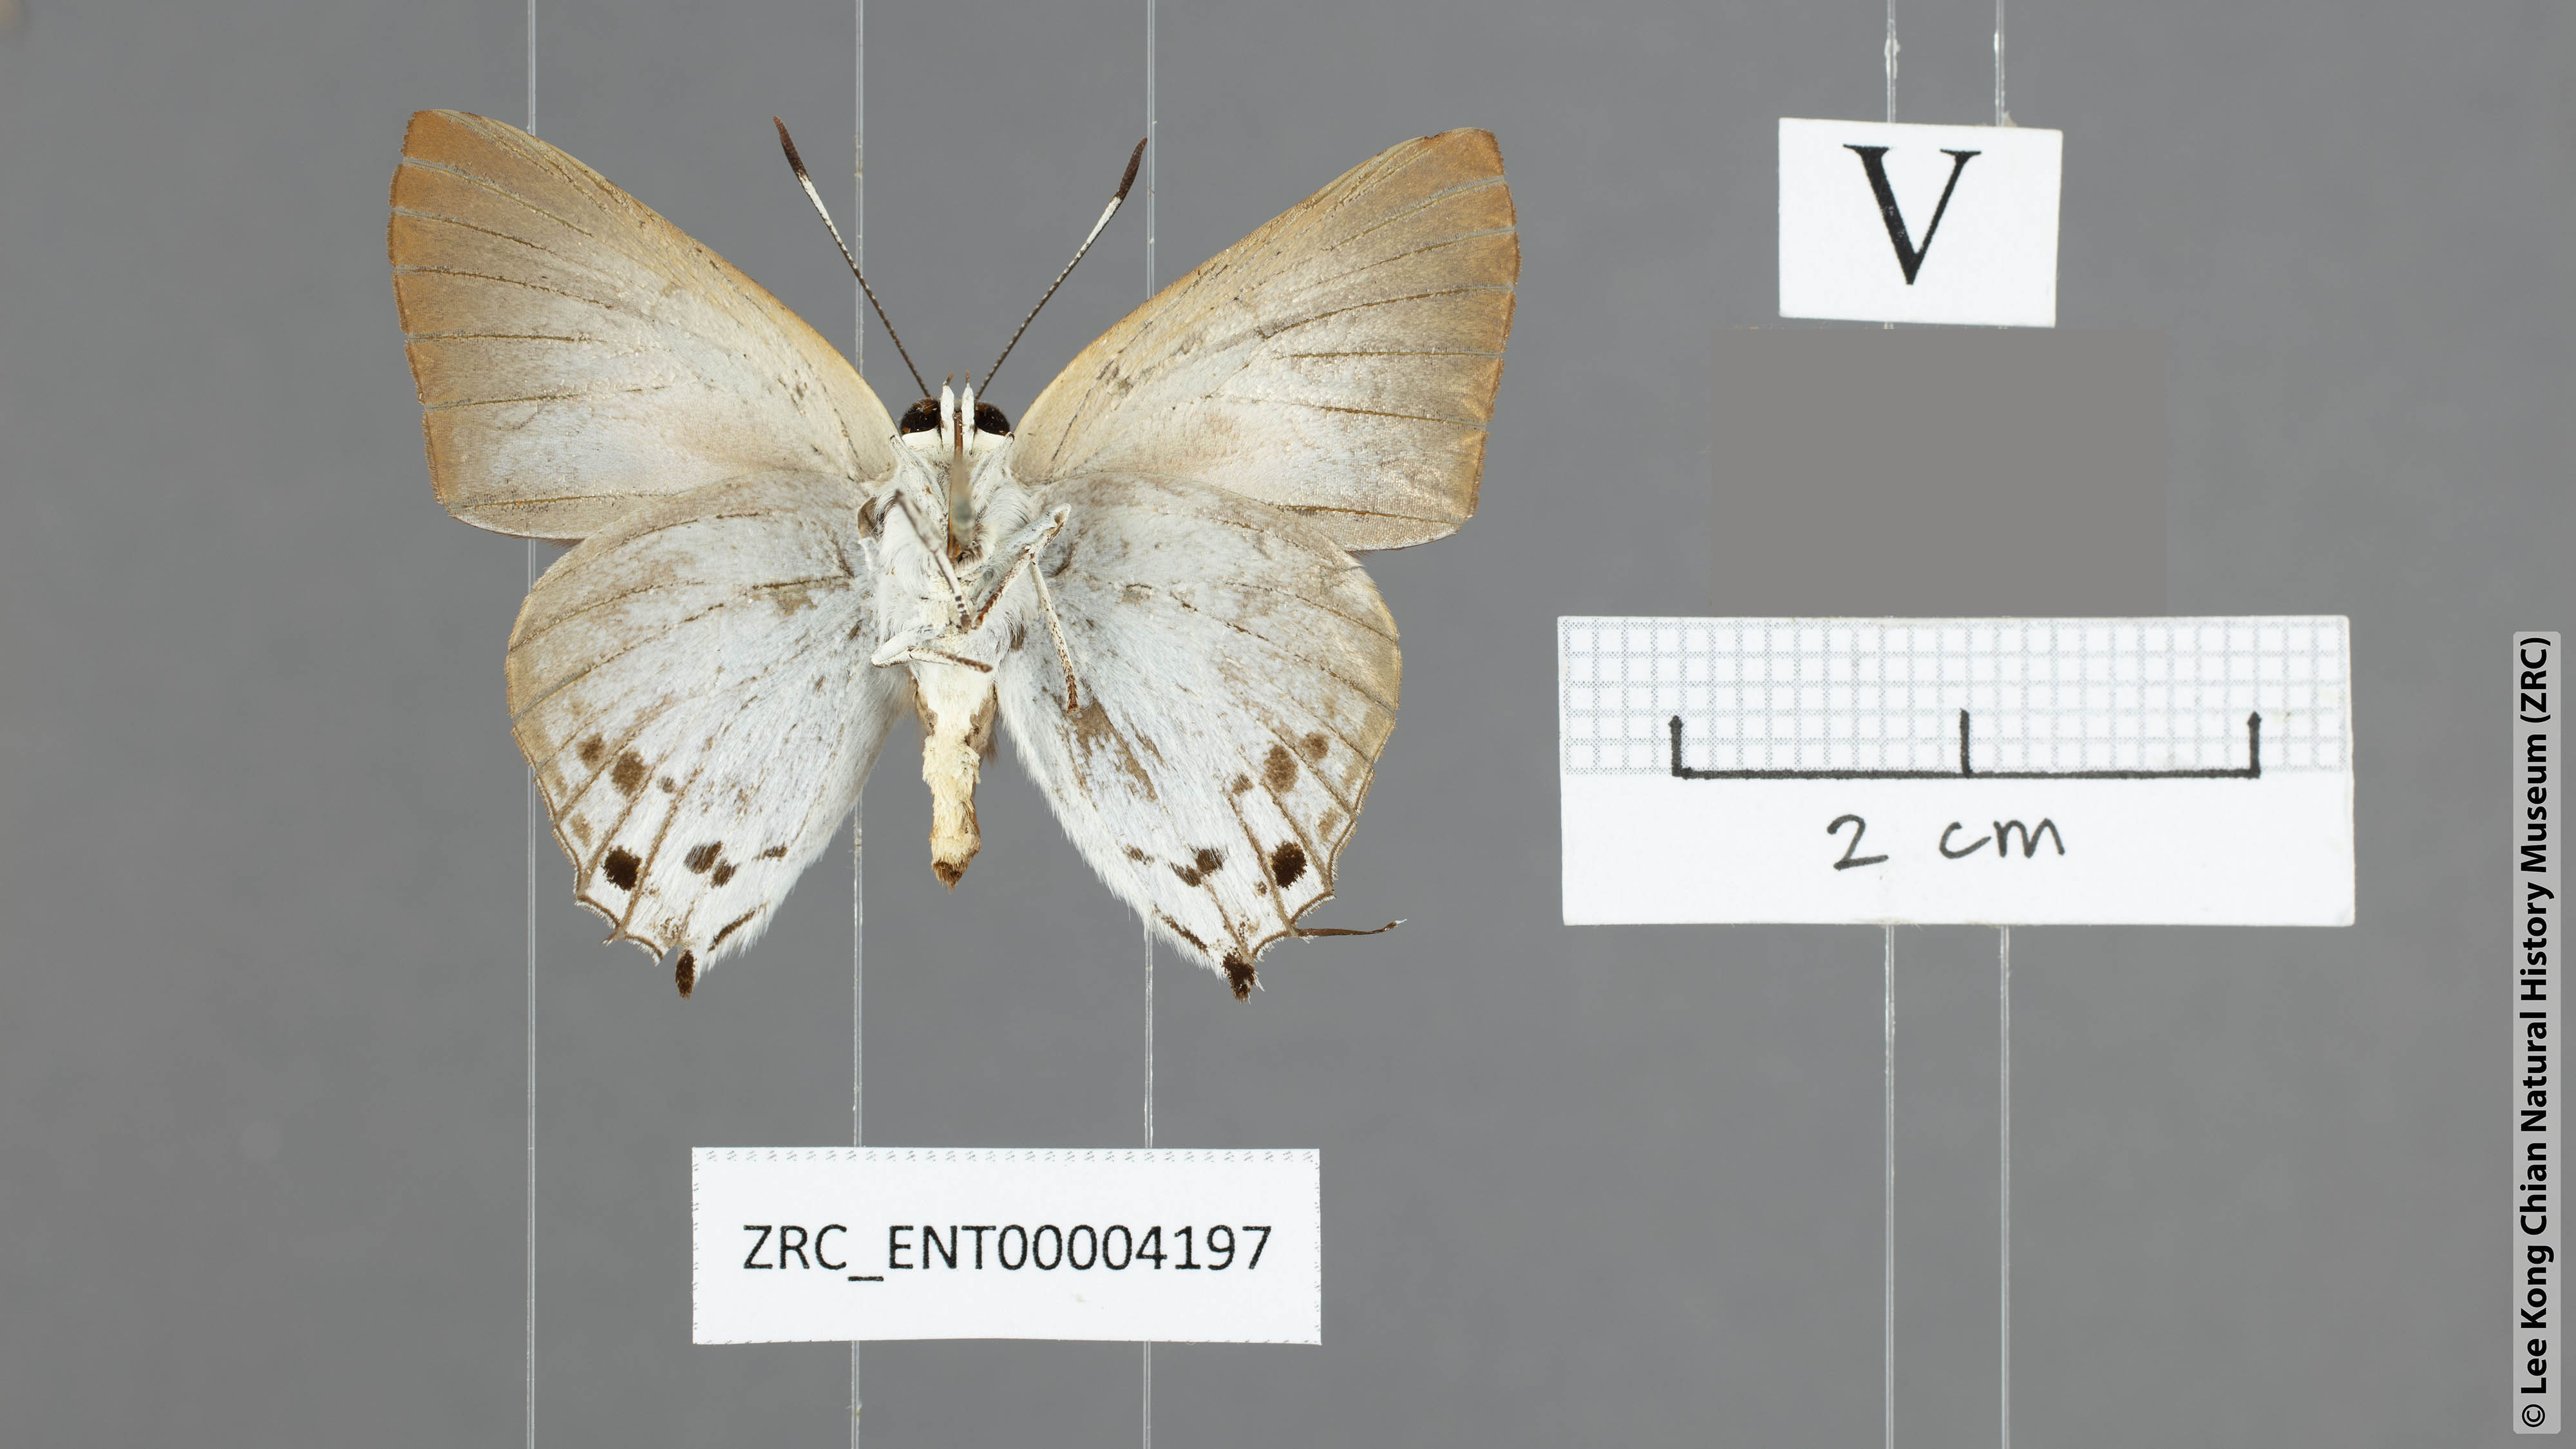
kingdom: Animalia
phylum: Arthropoda
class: Insecta
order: Lepidoptera
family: Lycaenidae
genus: Deudorix
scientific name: Deudorix
